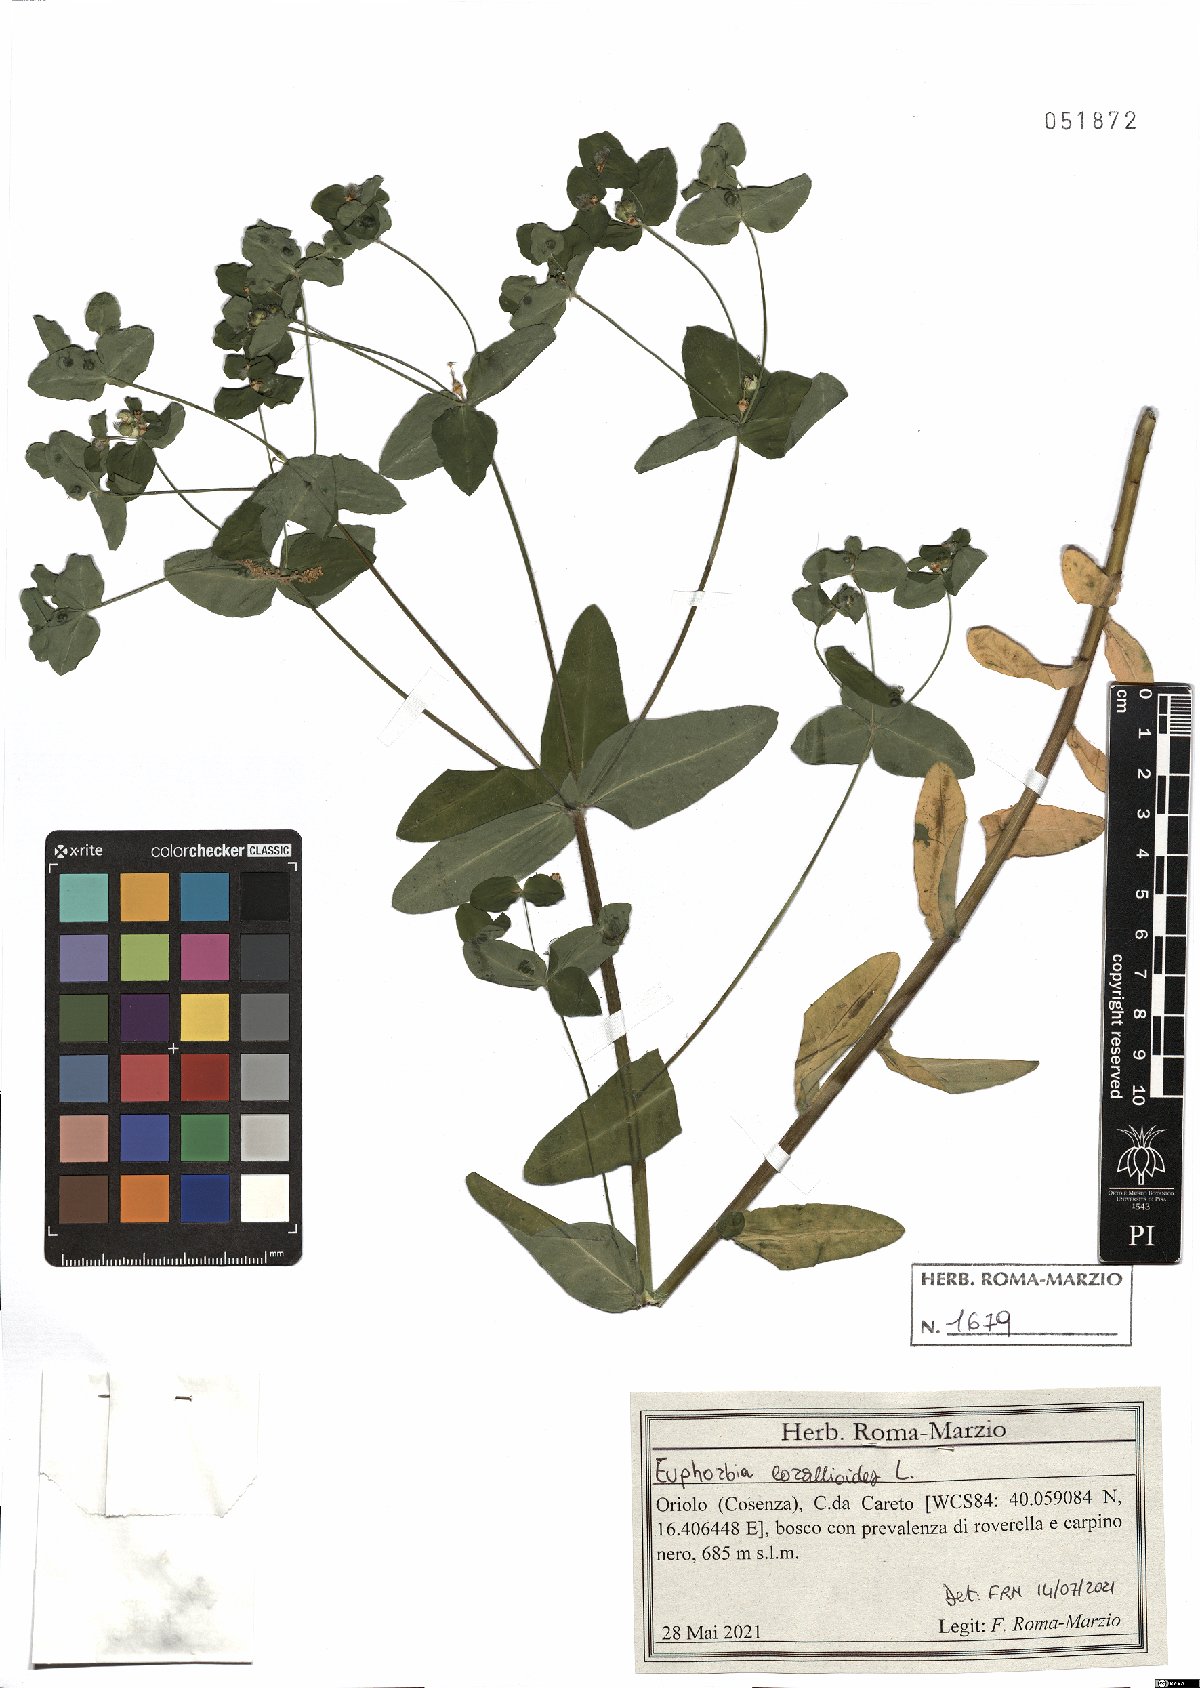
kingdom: Plantae
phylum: Tracheophyta
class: Magnoliopsida
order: Malpighiales
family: Euphorbiaceae
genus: Euphorbia
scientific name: Euphorbia corallioides
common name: Coral spurge
